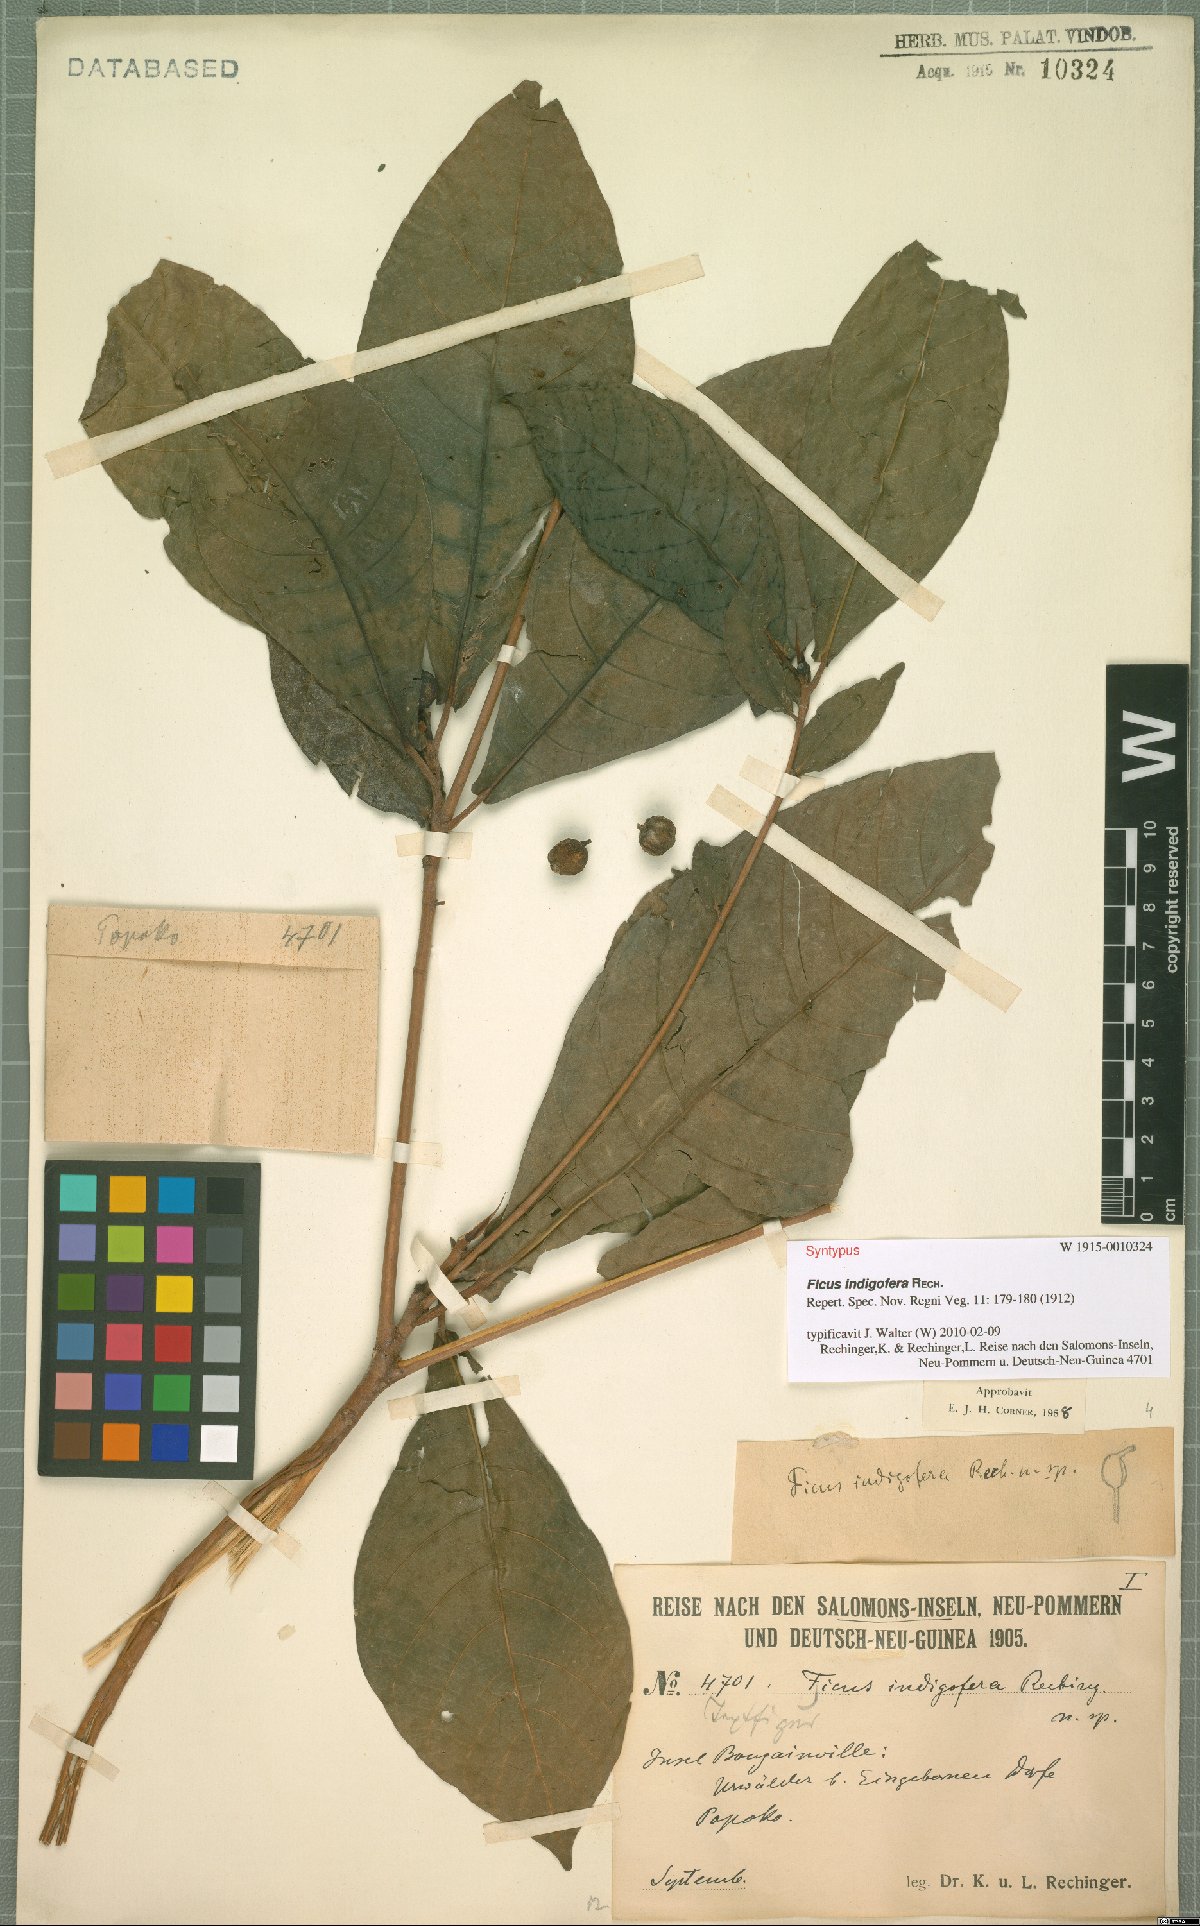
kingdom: Plantae
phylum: Tracheophyta
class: Magnoliopsida
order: Rosales
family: Moraceae
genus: Ficus
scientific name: Ficus indigofera
